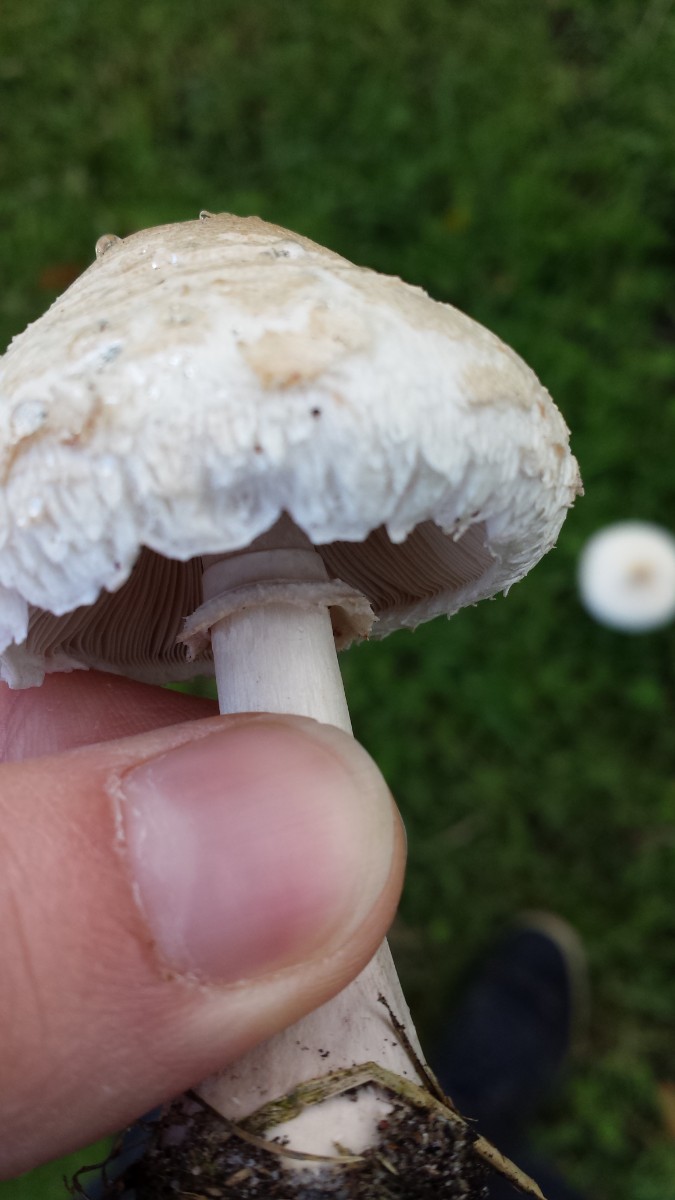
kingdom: Fungi
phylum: Basidiomycota
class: Agaricomycetes
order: Agaricales
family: Agaricaceae
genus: Macrolepiota
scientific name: Macrolepiota excoriata
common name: mark-kæmpeparasolhat
